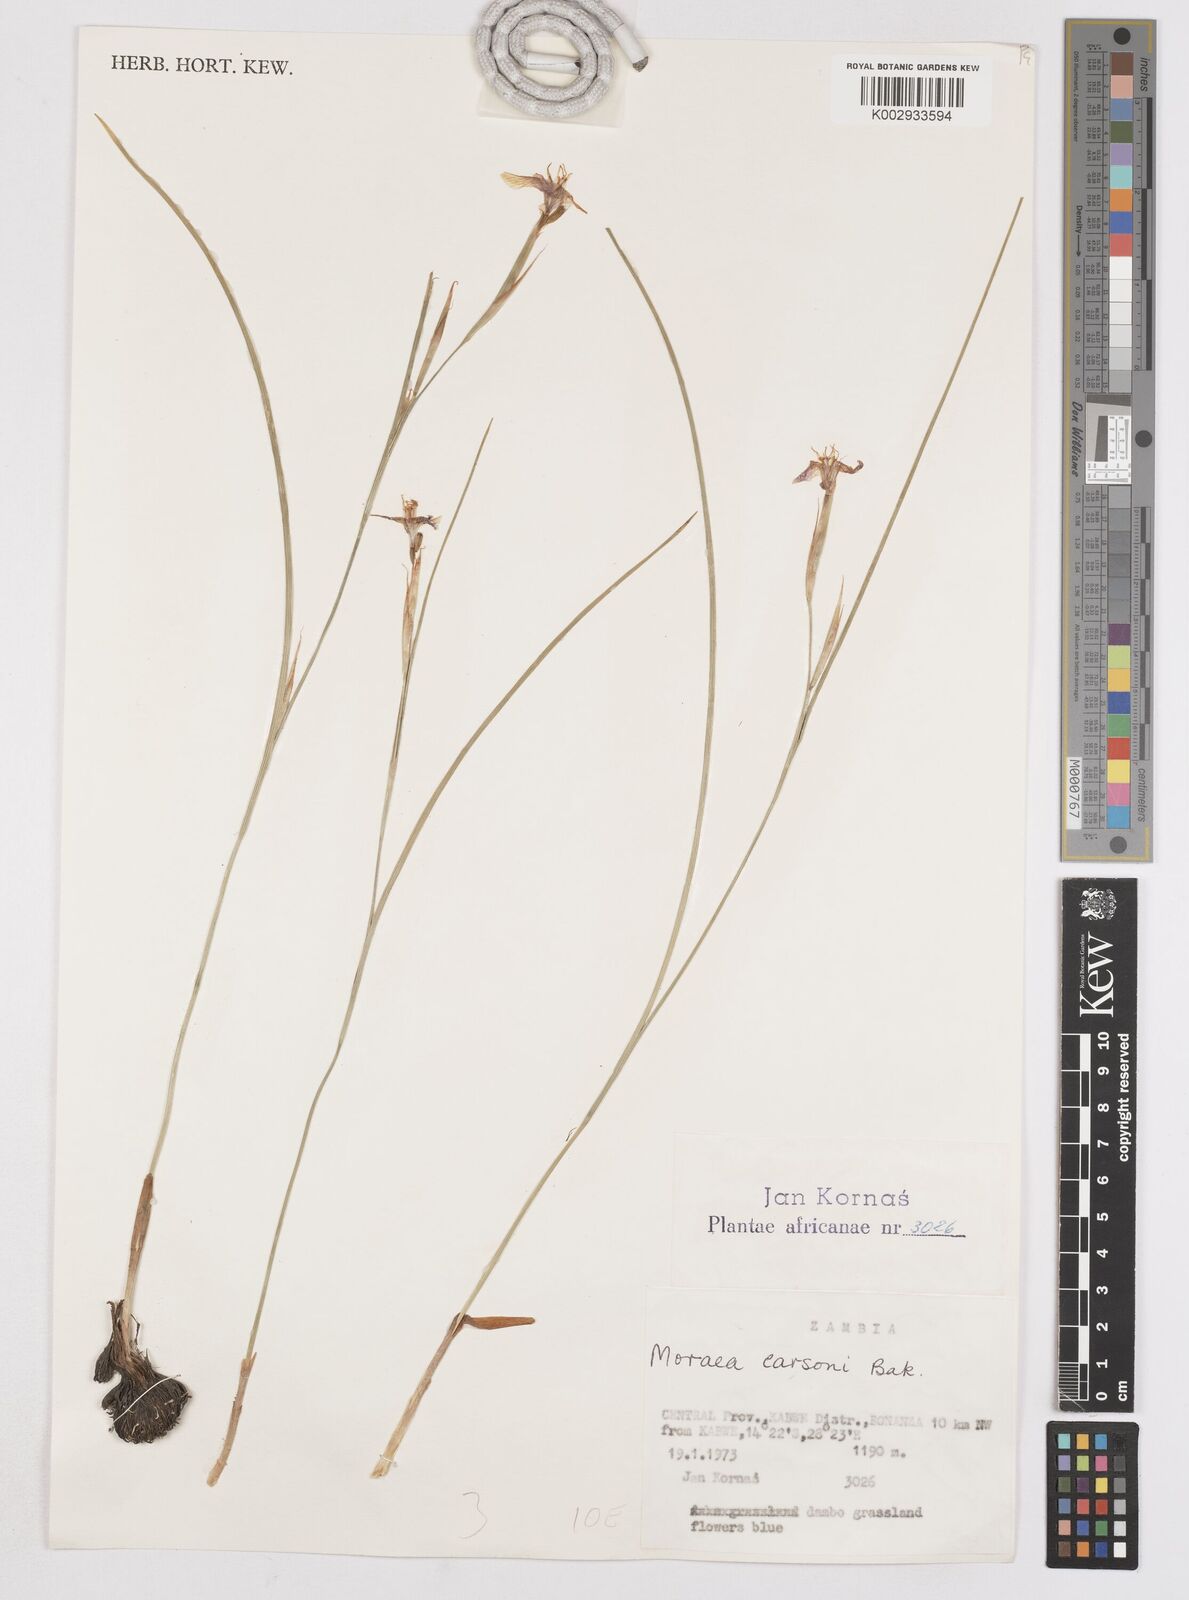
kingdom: Plantae
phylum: Tracheophyta
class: Liliopsida
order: Asparagales
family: Iridaceae
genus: Moraea
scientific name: Moraea carsonii
